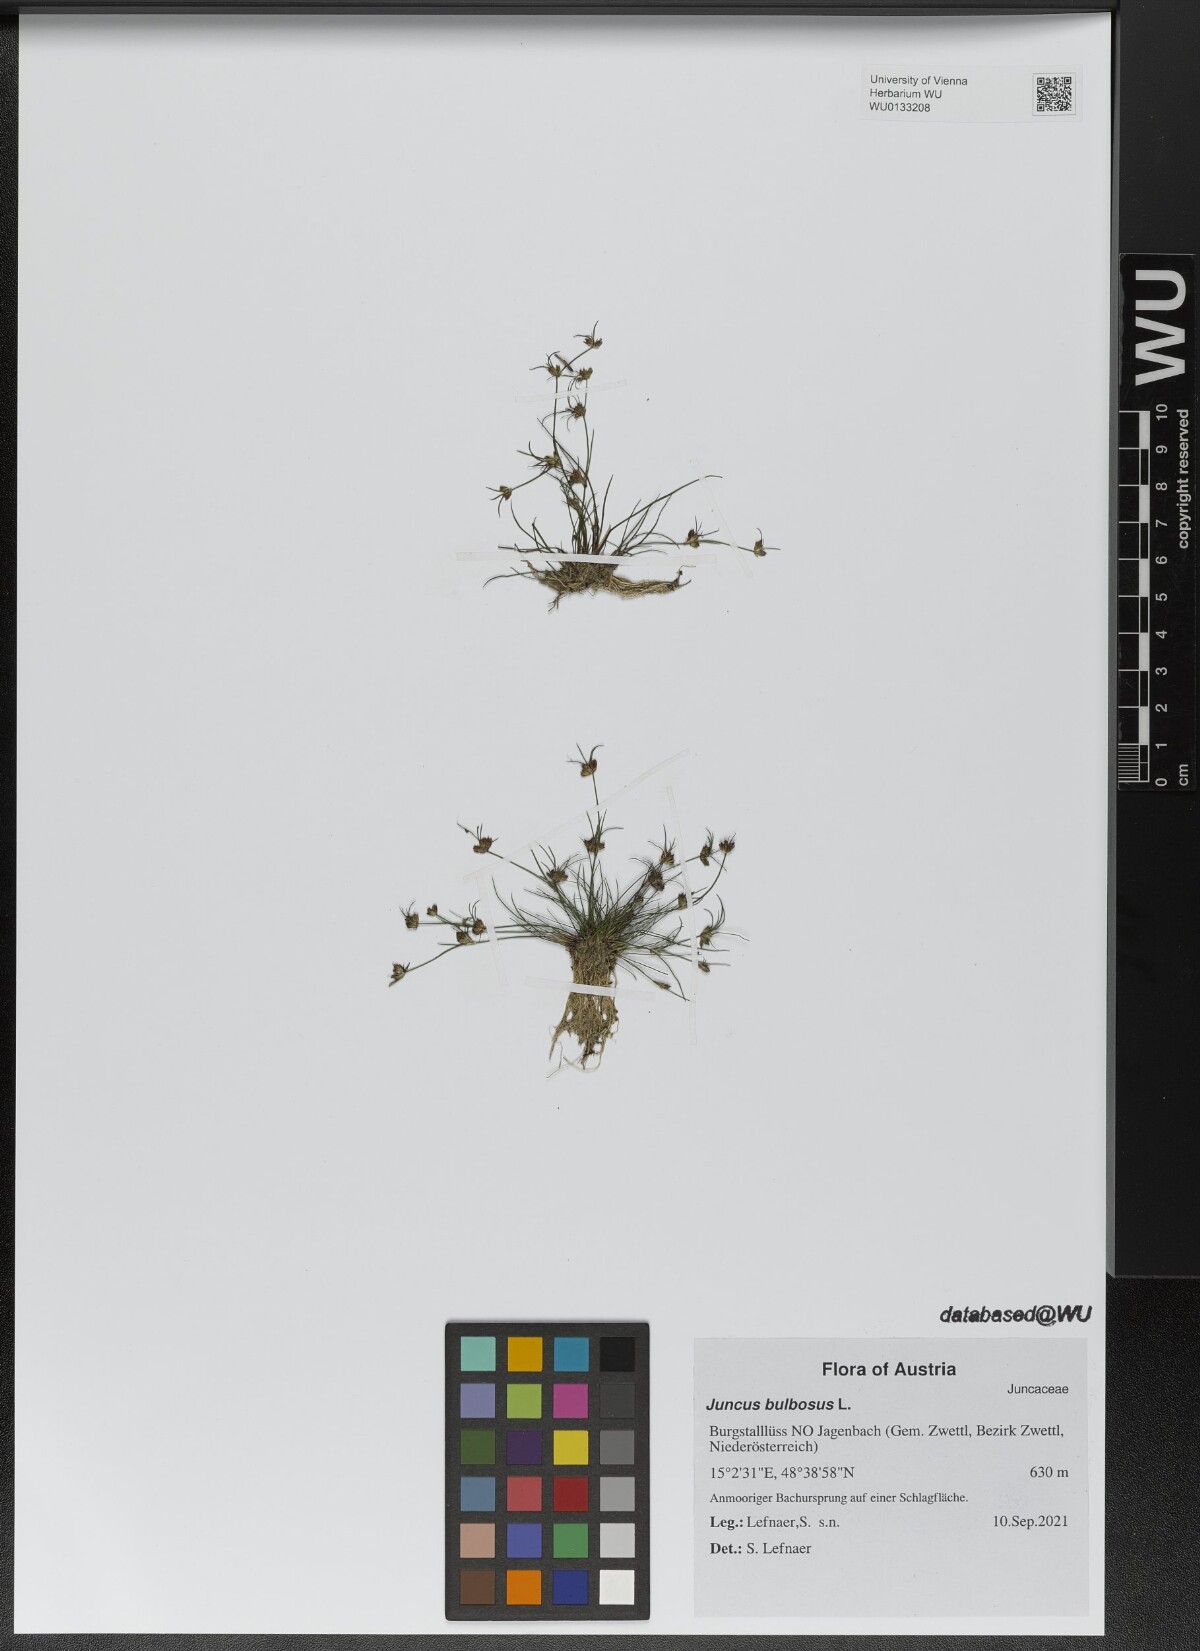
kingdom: Plantae
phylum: Tracheophyta
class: Liliopsida
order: Poales
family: Juncaceae
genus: Juncus
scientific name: Juncus bulbosus
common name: Bulbous rush
